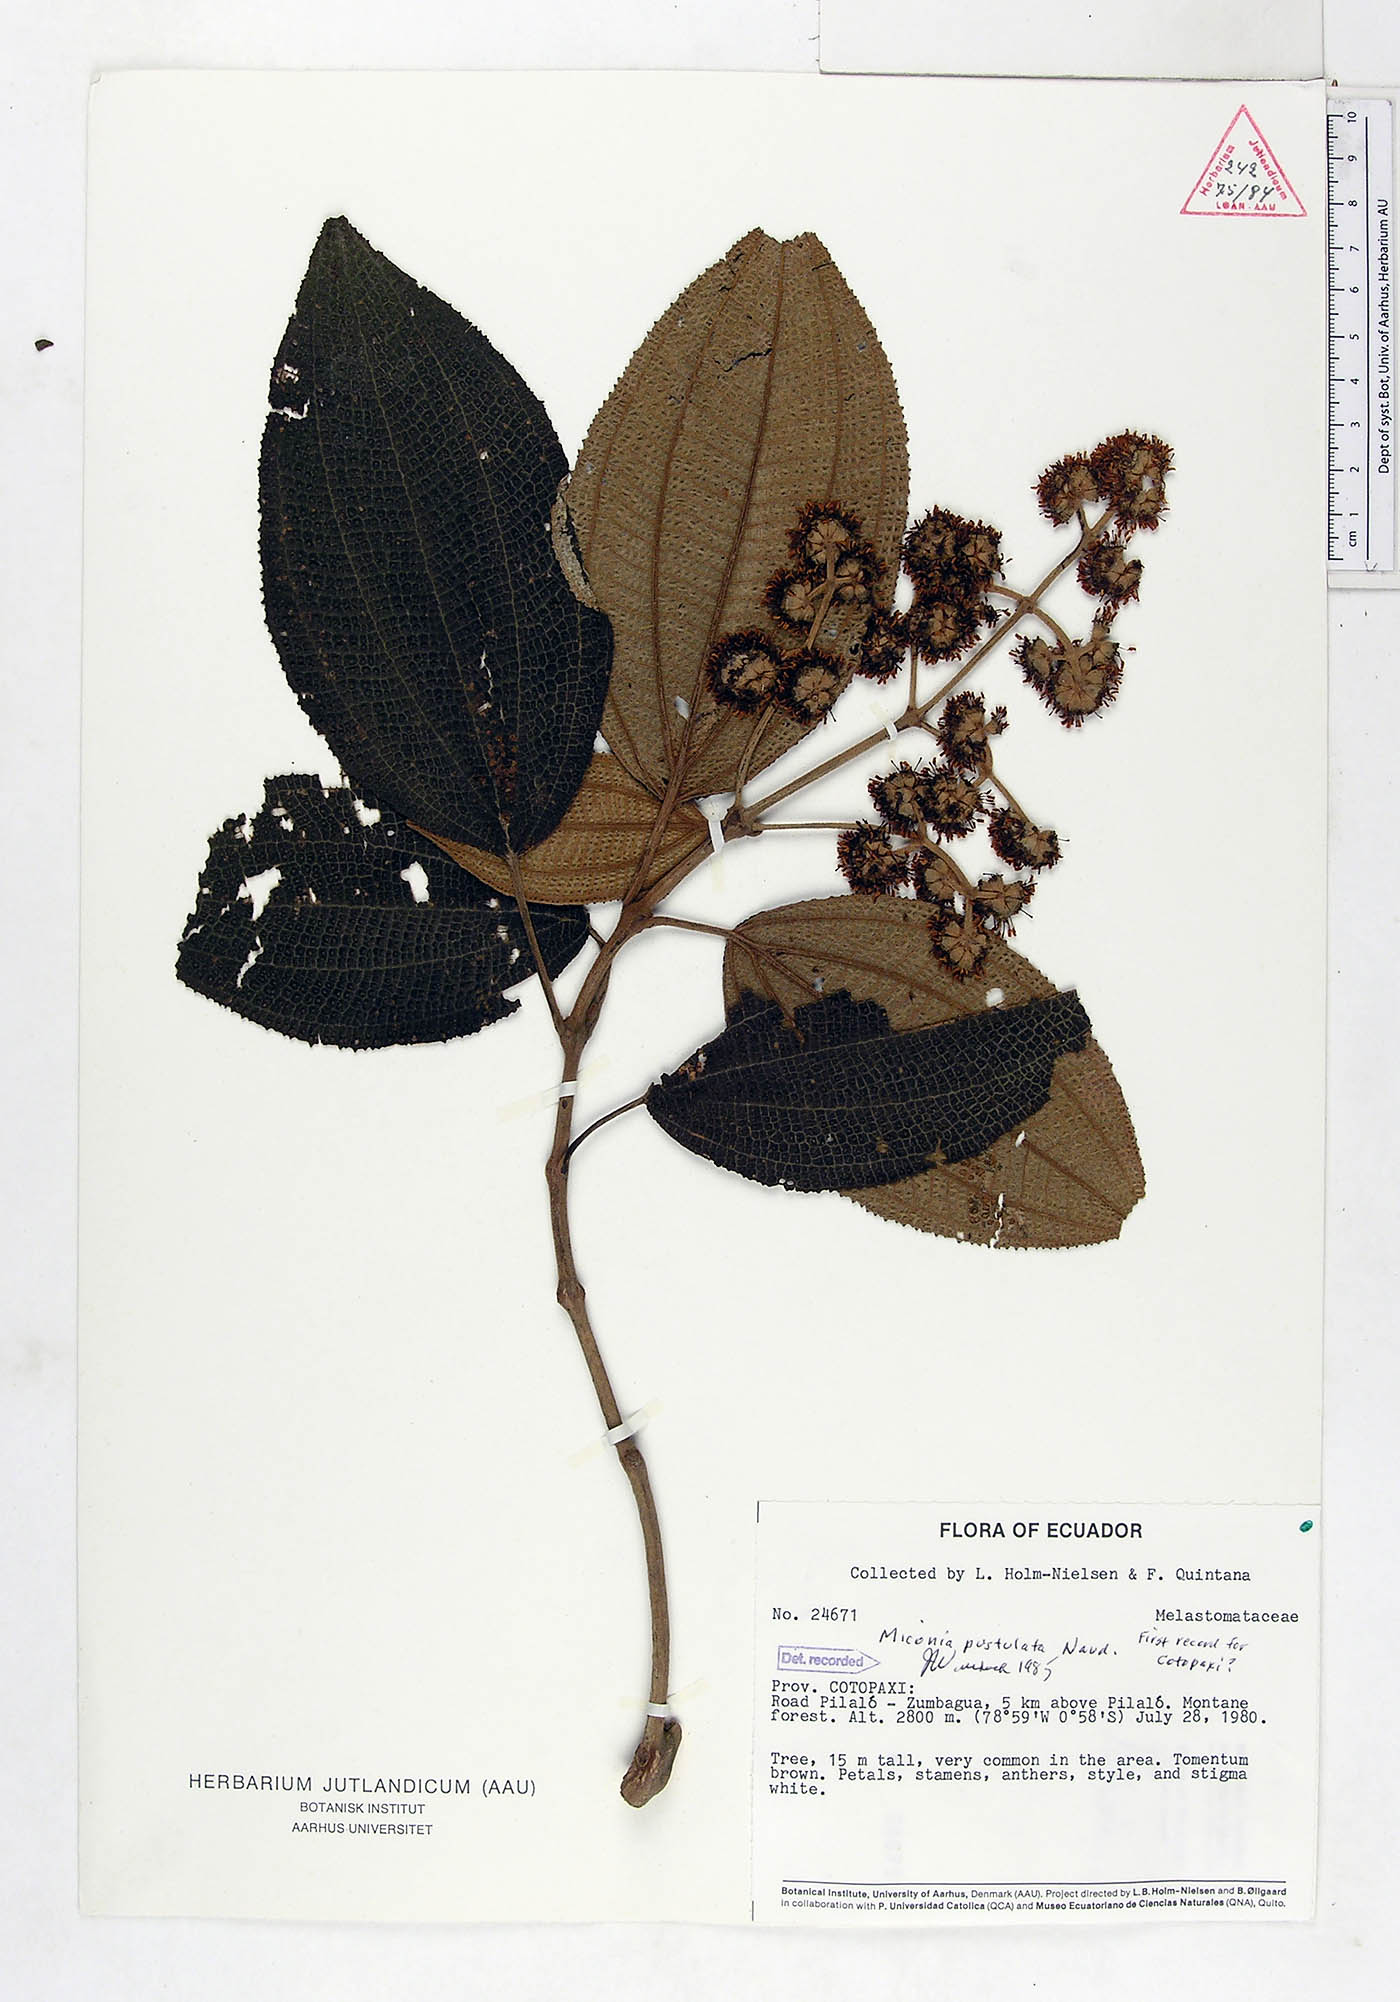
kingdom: Plantae
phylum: Tracheophyta
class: Magnoliopsida
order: Myrtales
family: Melastomataceae
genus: Miconia
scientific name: Miconia pustulata
